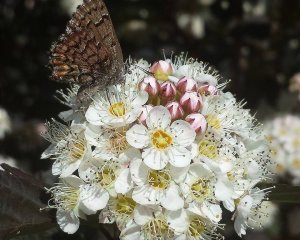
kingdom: Animalia
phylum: Arthropoda
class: Insecta
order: Lepidoptera
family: Lycaenidae
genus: Incisalia
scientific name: Incisalia niphon
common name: Eastern Pine Elfin
